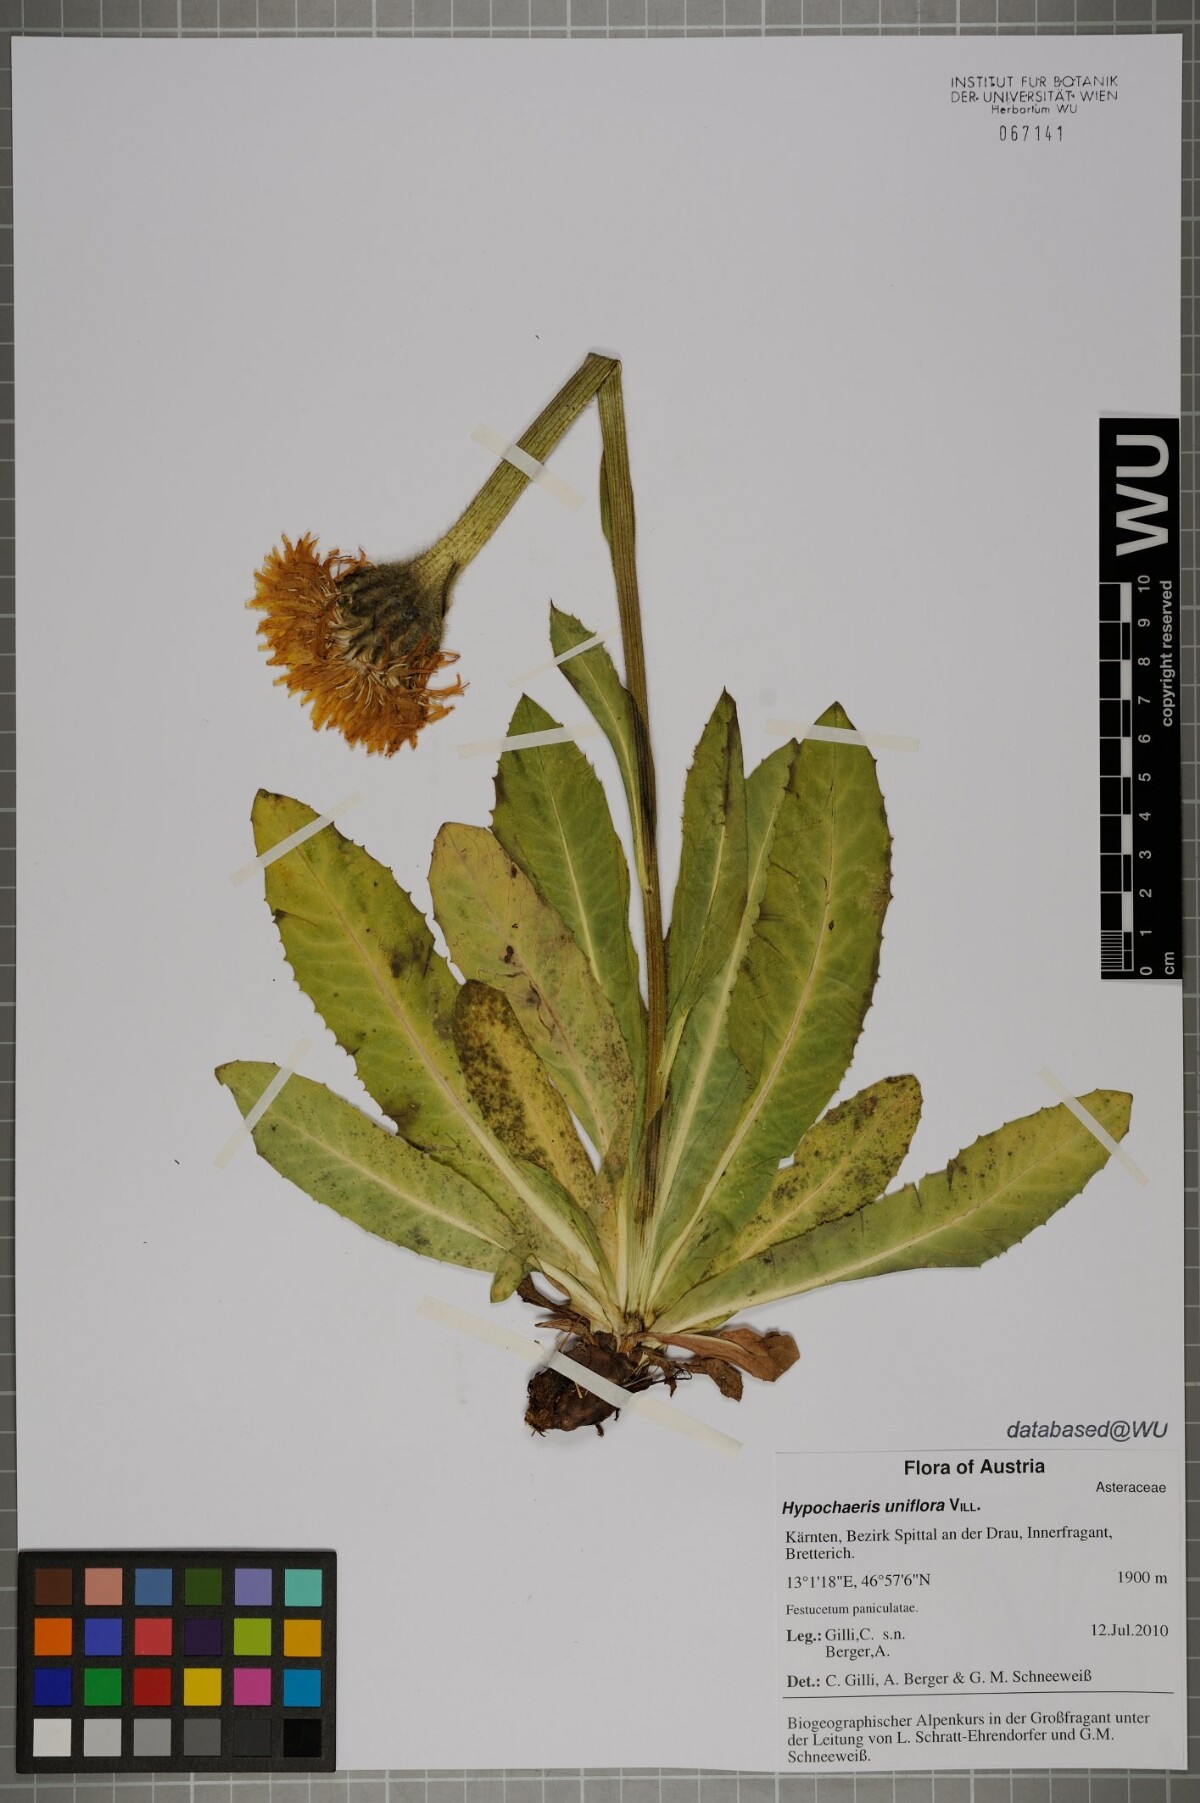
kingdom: Plantae
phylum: Tracheophyta
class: Magnoliopsida
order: Asterales
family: Asteraceae
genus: Trommsdorffia
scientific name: Trommsdorffia uniflora
